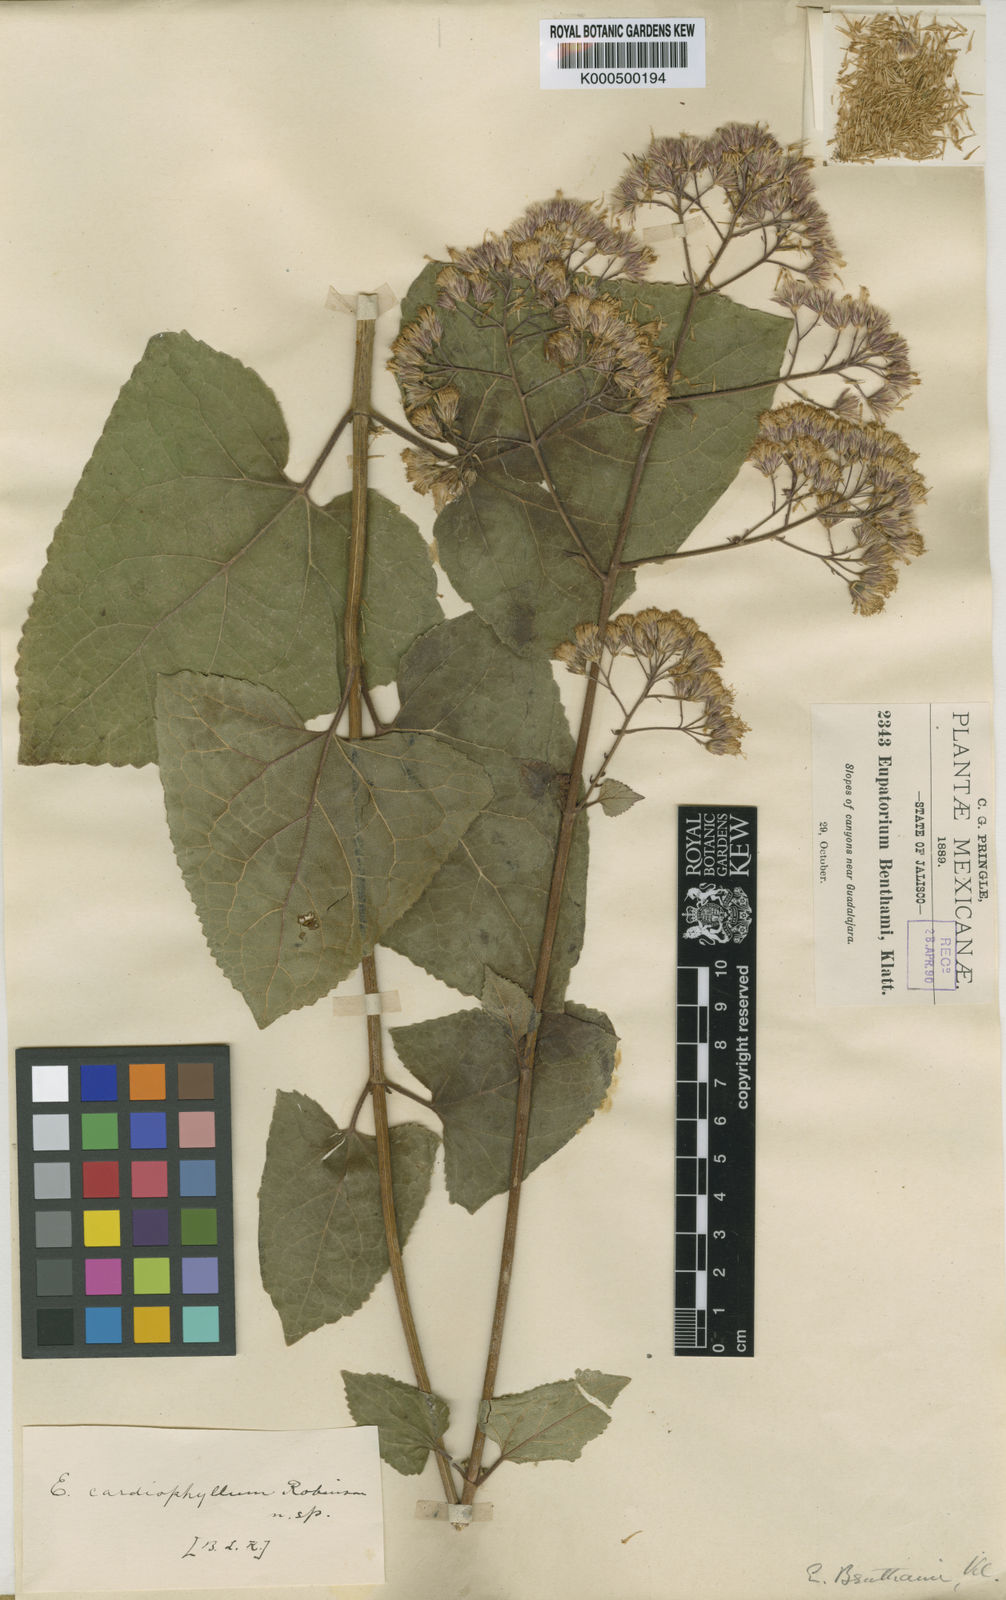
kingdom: Plantae
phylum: Tracheophyta
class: Magnoliopsida
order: Asterales
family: Asteraceae
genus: Ageratina
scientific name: Ageratina cardiophylla
